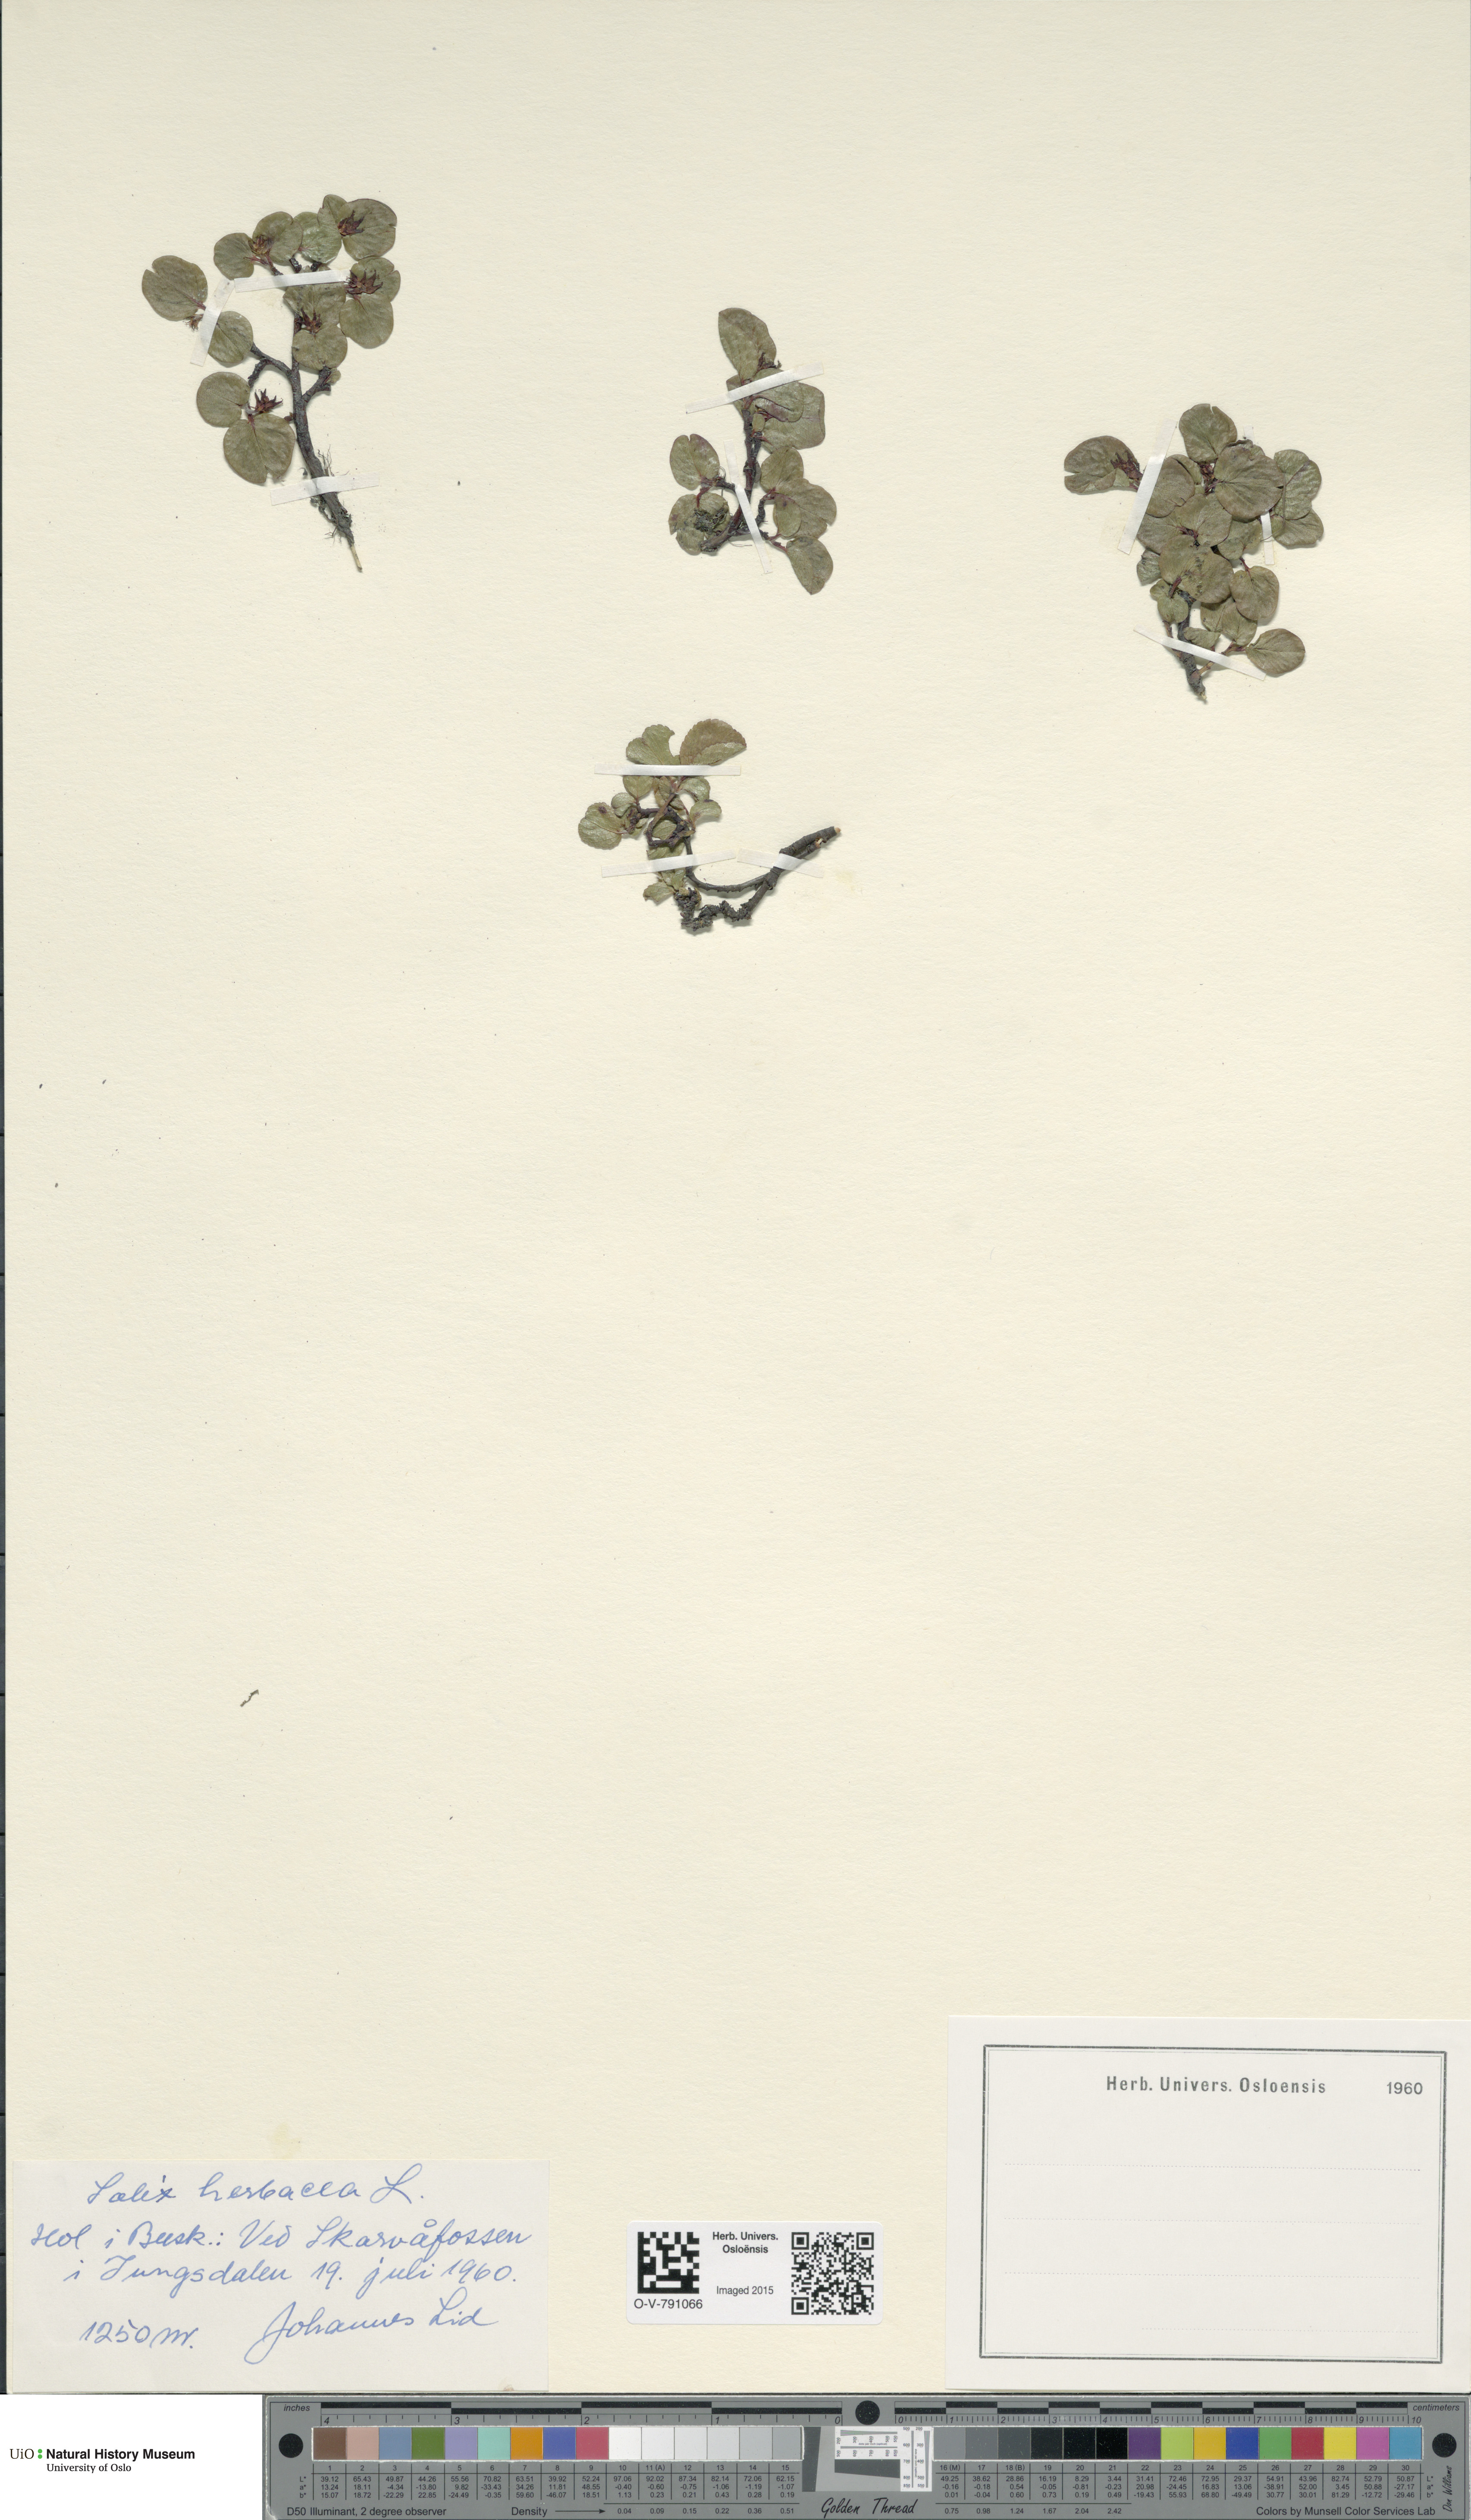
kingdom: Plantae
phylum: Tracheophyta
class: Magnoliopsida
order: Malpighiales
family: Salicaceae
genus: Salix
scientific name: Salix herbacea
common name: Dwarf willow
